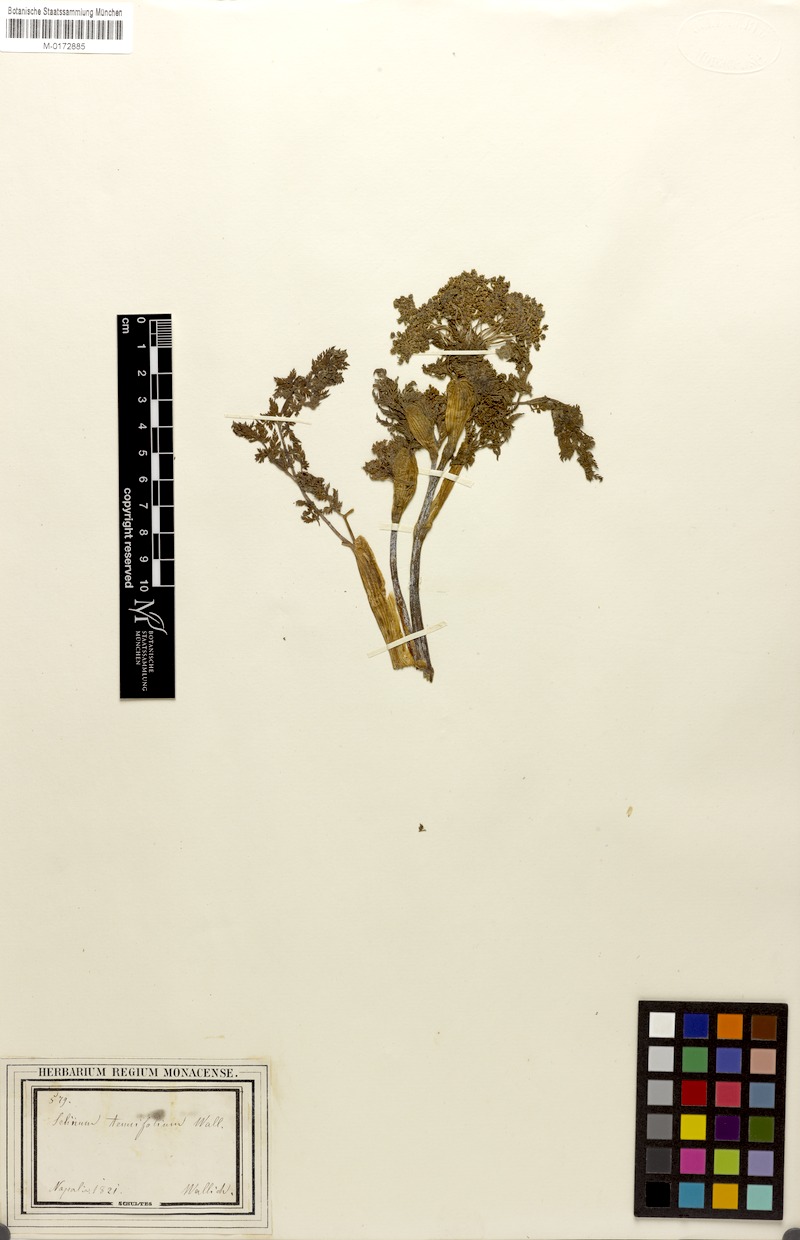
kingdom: Plantae
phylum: Tracheophyta
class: Magnoliopsida
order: Apiales
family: Apiaceae
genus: Ligusticopsis
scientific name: Ligusticopsis wallichiana
